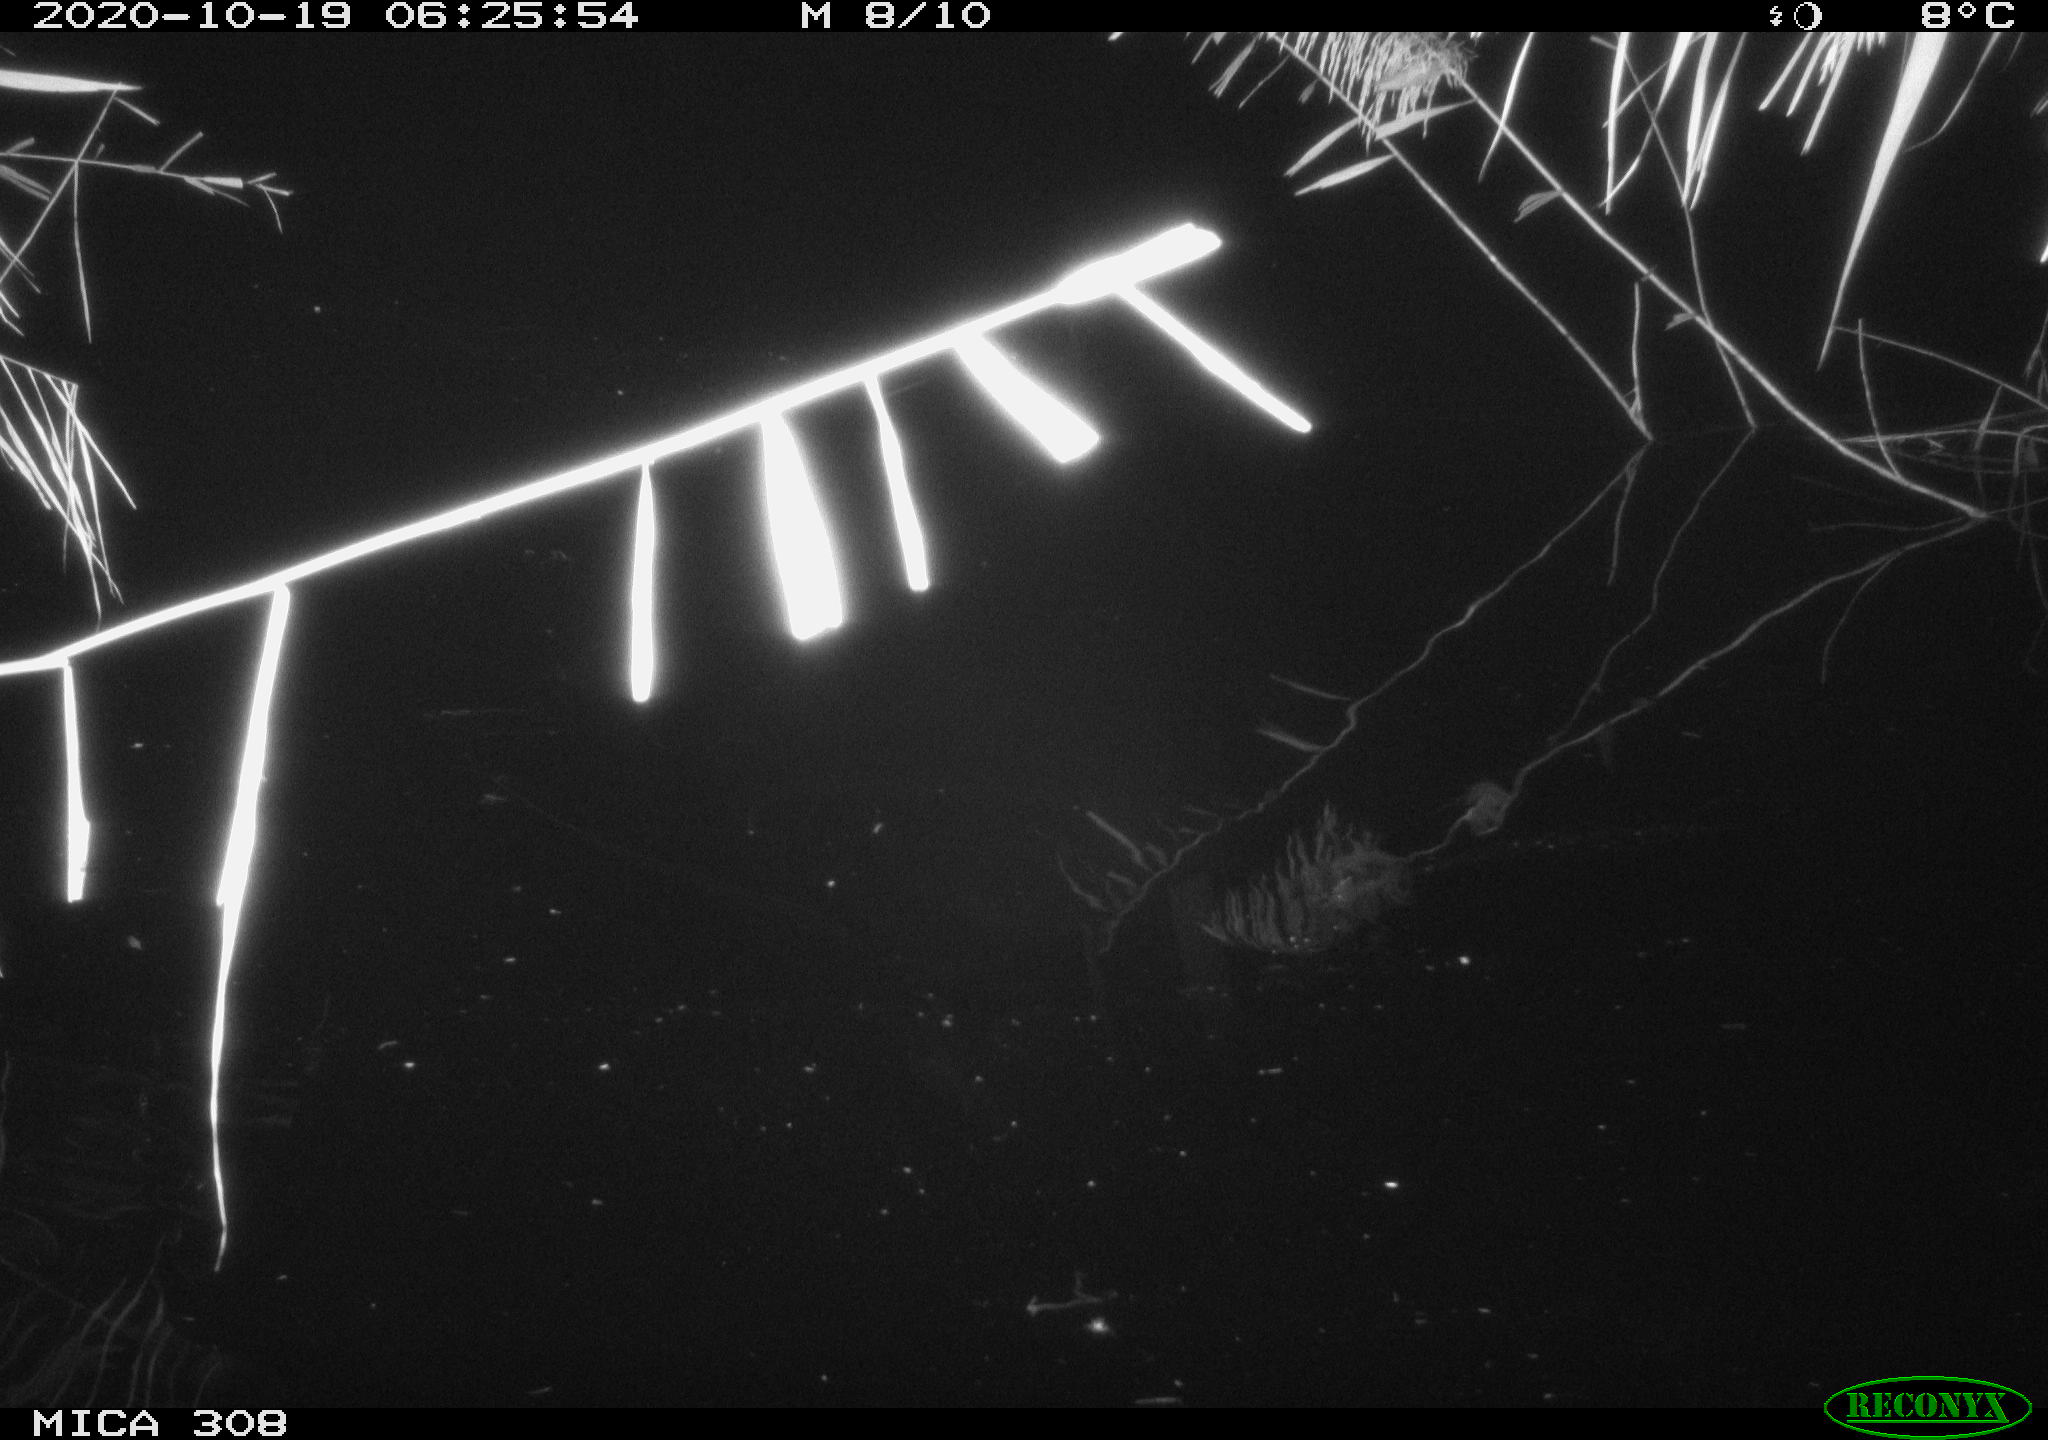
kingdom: Animalia
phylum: Chordata
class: Aves
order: Anseriformes
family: Anatidae
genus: Anas
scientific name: Anas platyrhynchos
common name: Mallard
